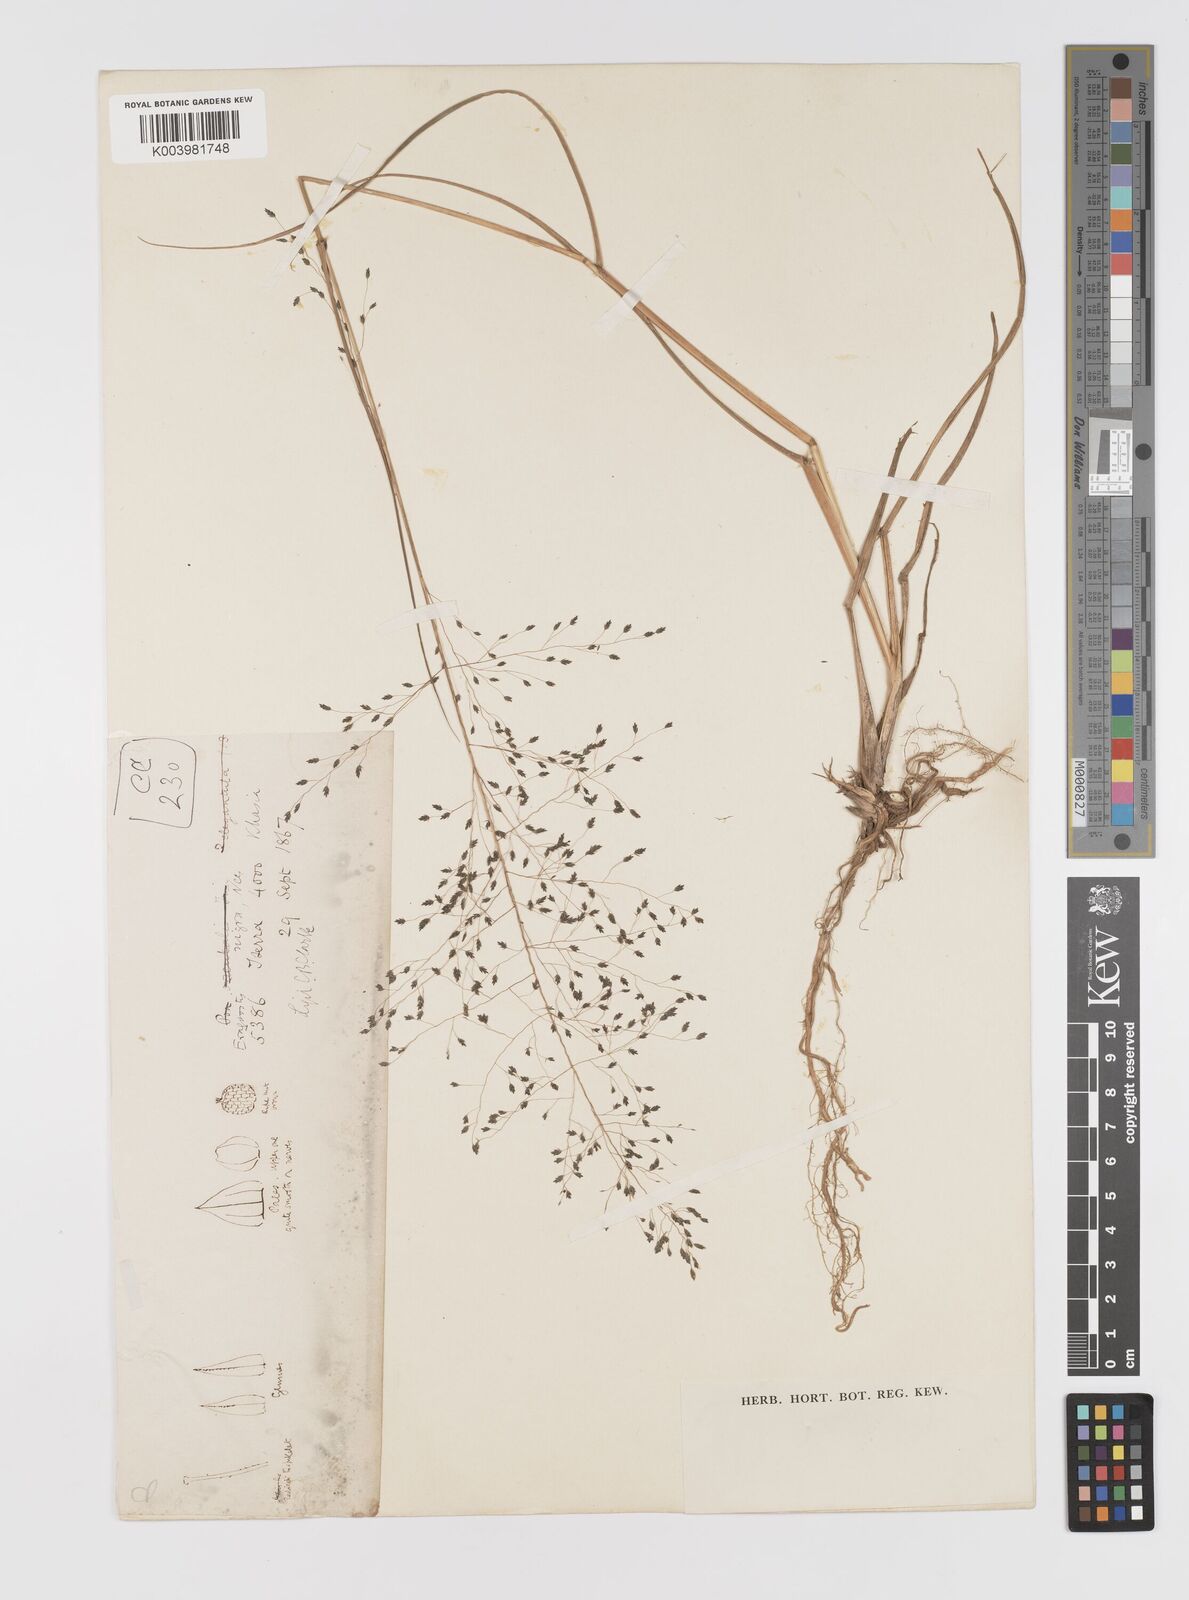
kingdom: Plantae
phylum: Tracheophyta
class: Liliopsida
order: Poales
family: Poaceae
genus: Eragrostis
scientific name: Eragrostis nigra
